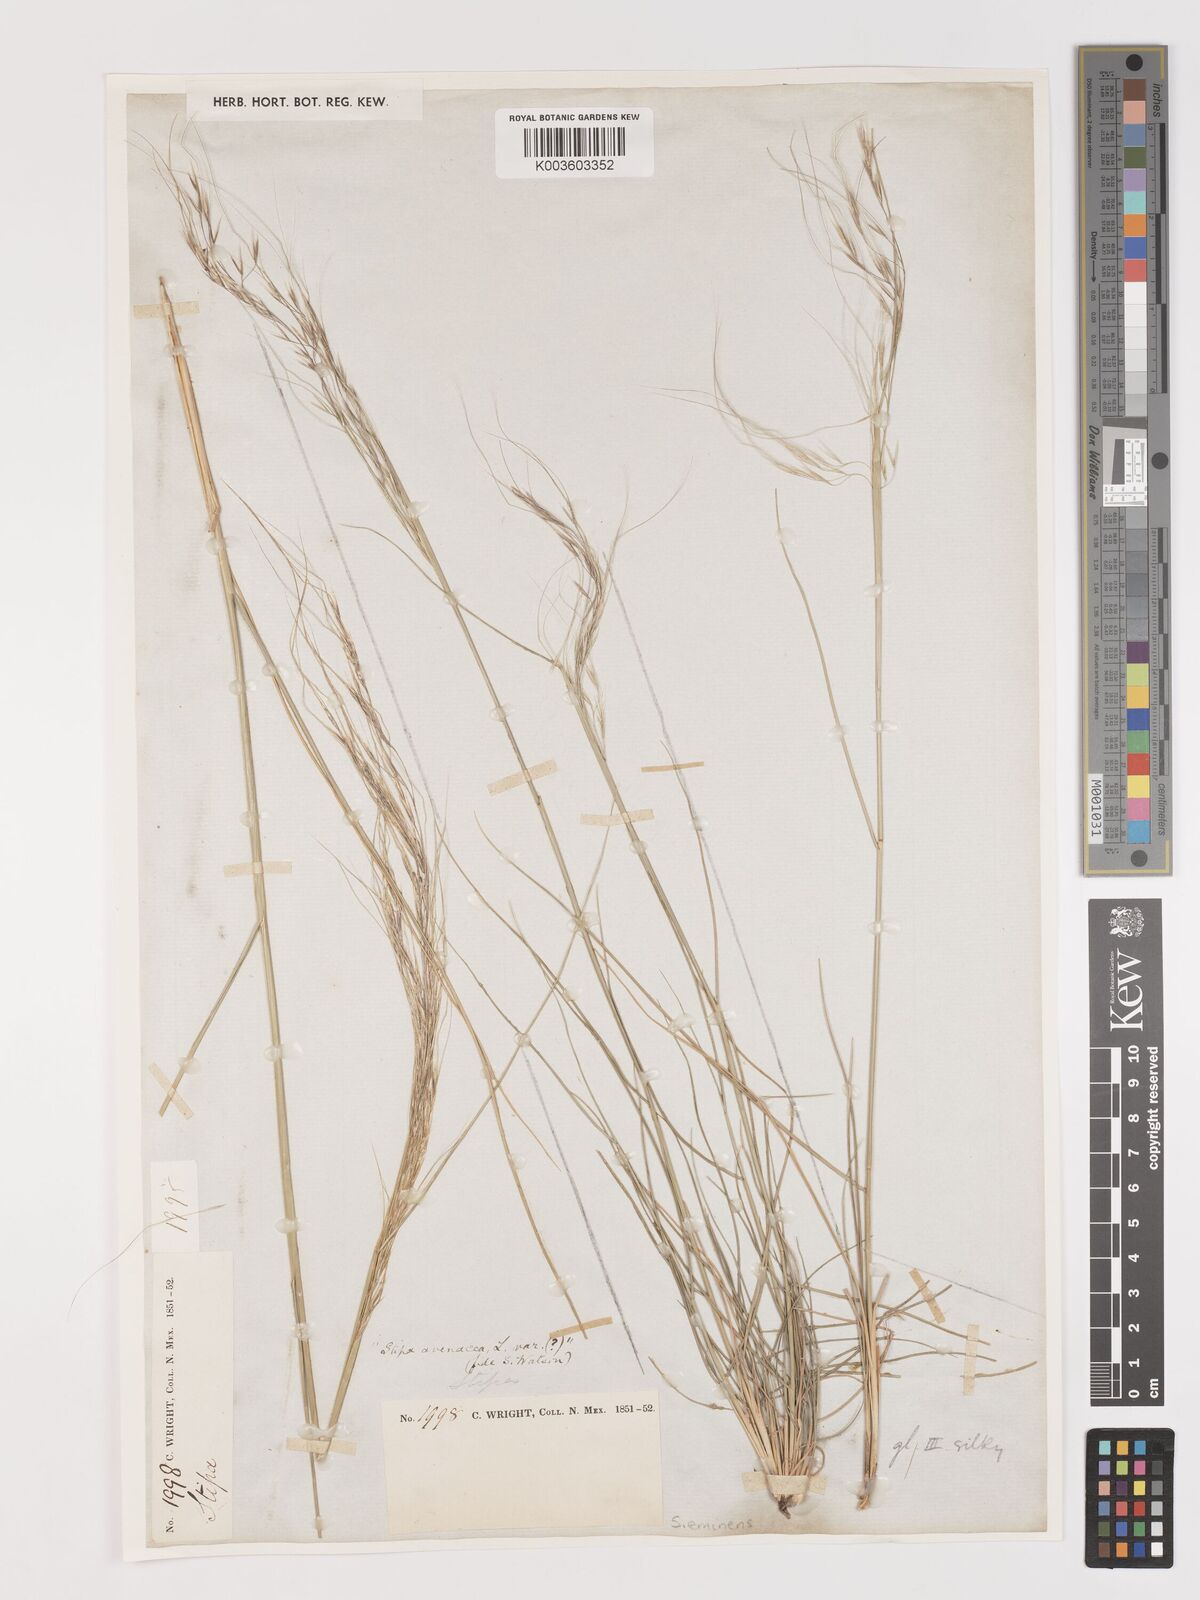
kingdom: Plantae
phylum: Tracheophyta
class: Liliopsida
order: Poales
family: Poaceae
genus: Nassella
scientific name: Nassella neesiana
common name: American needle-grass
